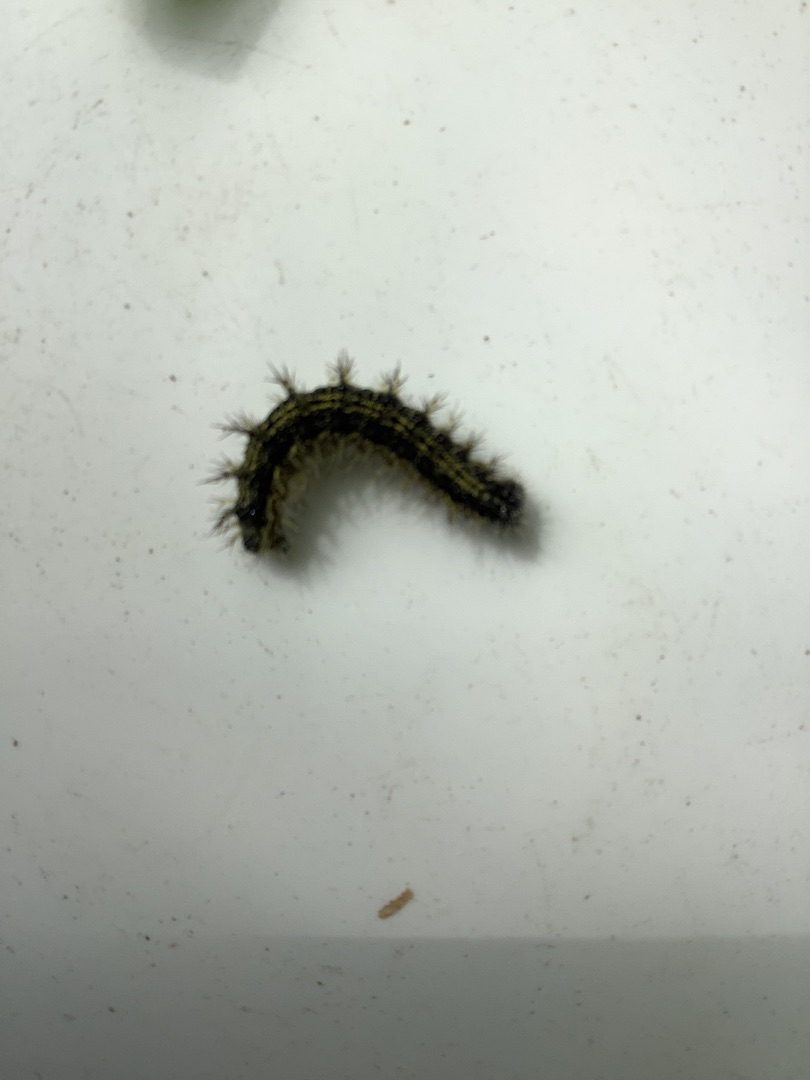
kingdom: Animalia
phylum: Arthropoda
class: Insecta
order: Lepidoptera
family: Nymphalidae
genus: Aglais
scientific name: Aglais urticae
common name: Nældens takvinge
